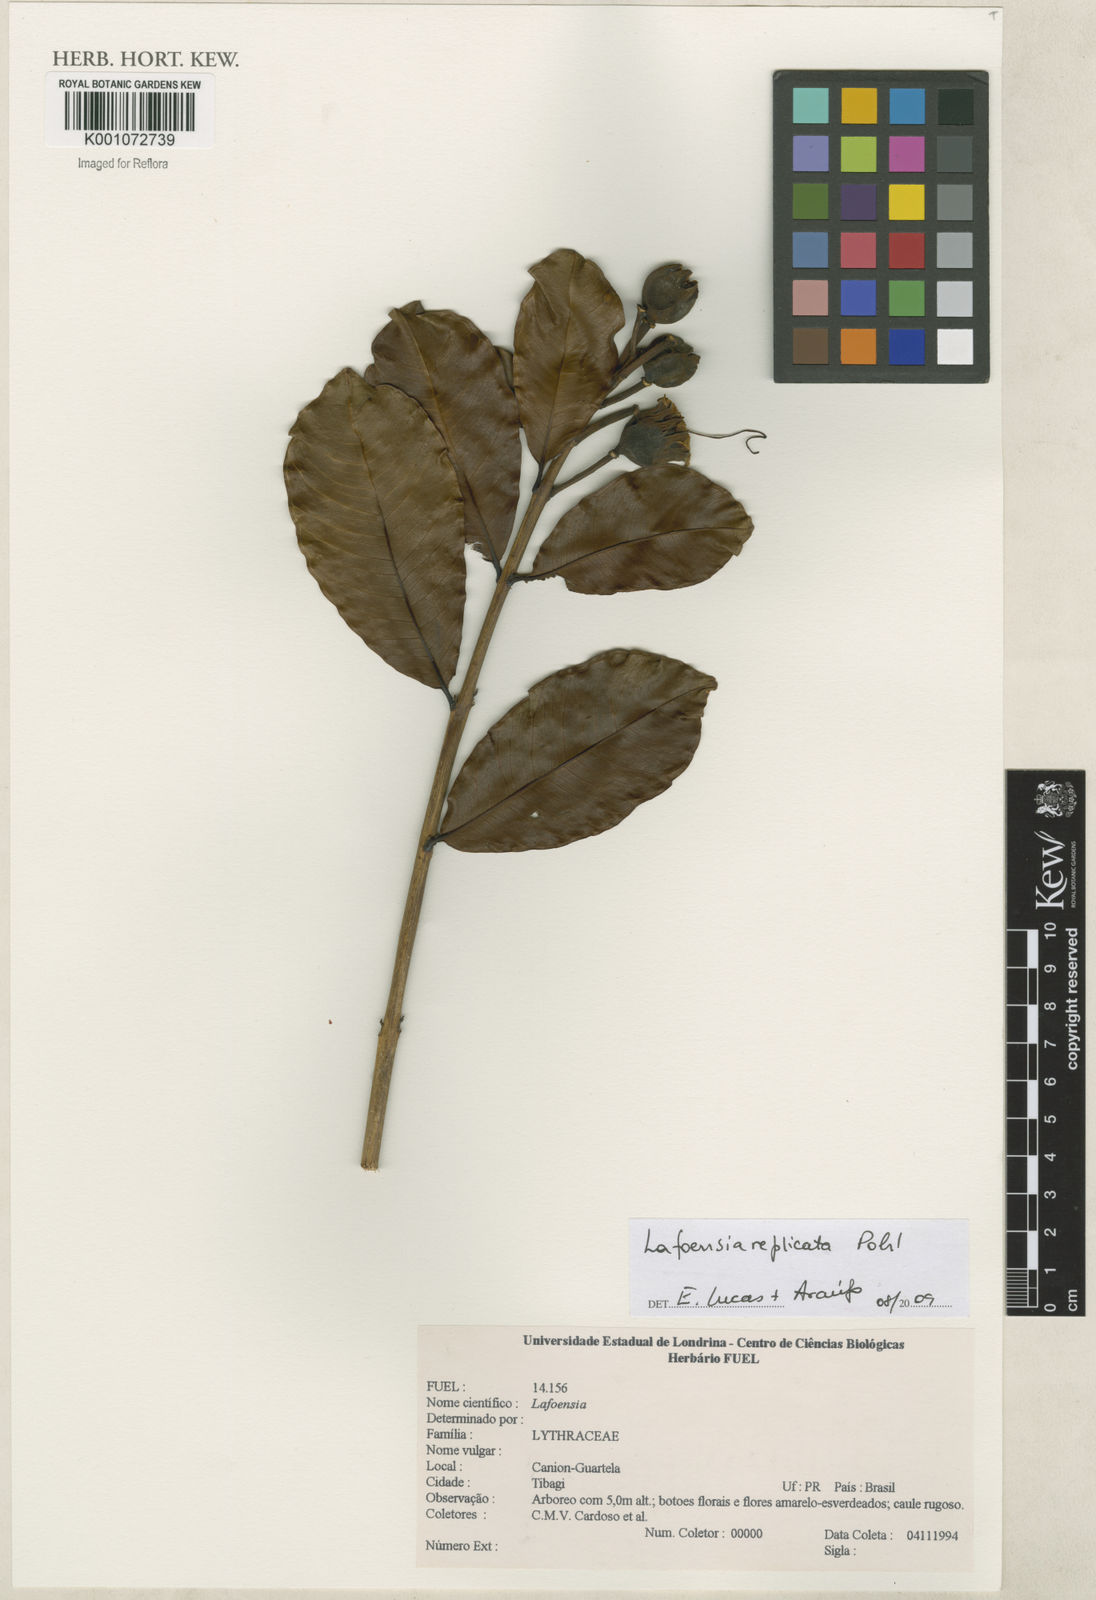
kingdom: Plantae
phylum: Tracheophyta
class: Magnoliopsida
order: Myrtales
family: Lythraceae
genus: Lafoensia
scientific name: Lafoensia vandelliana
